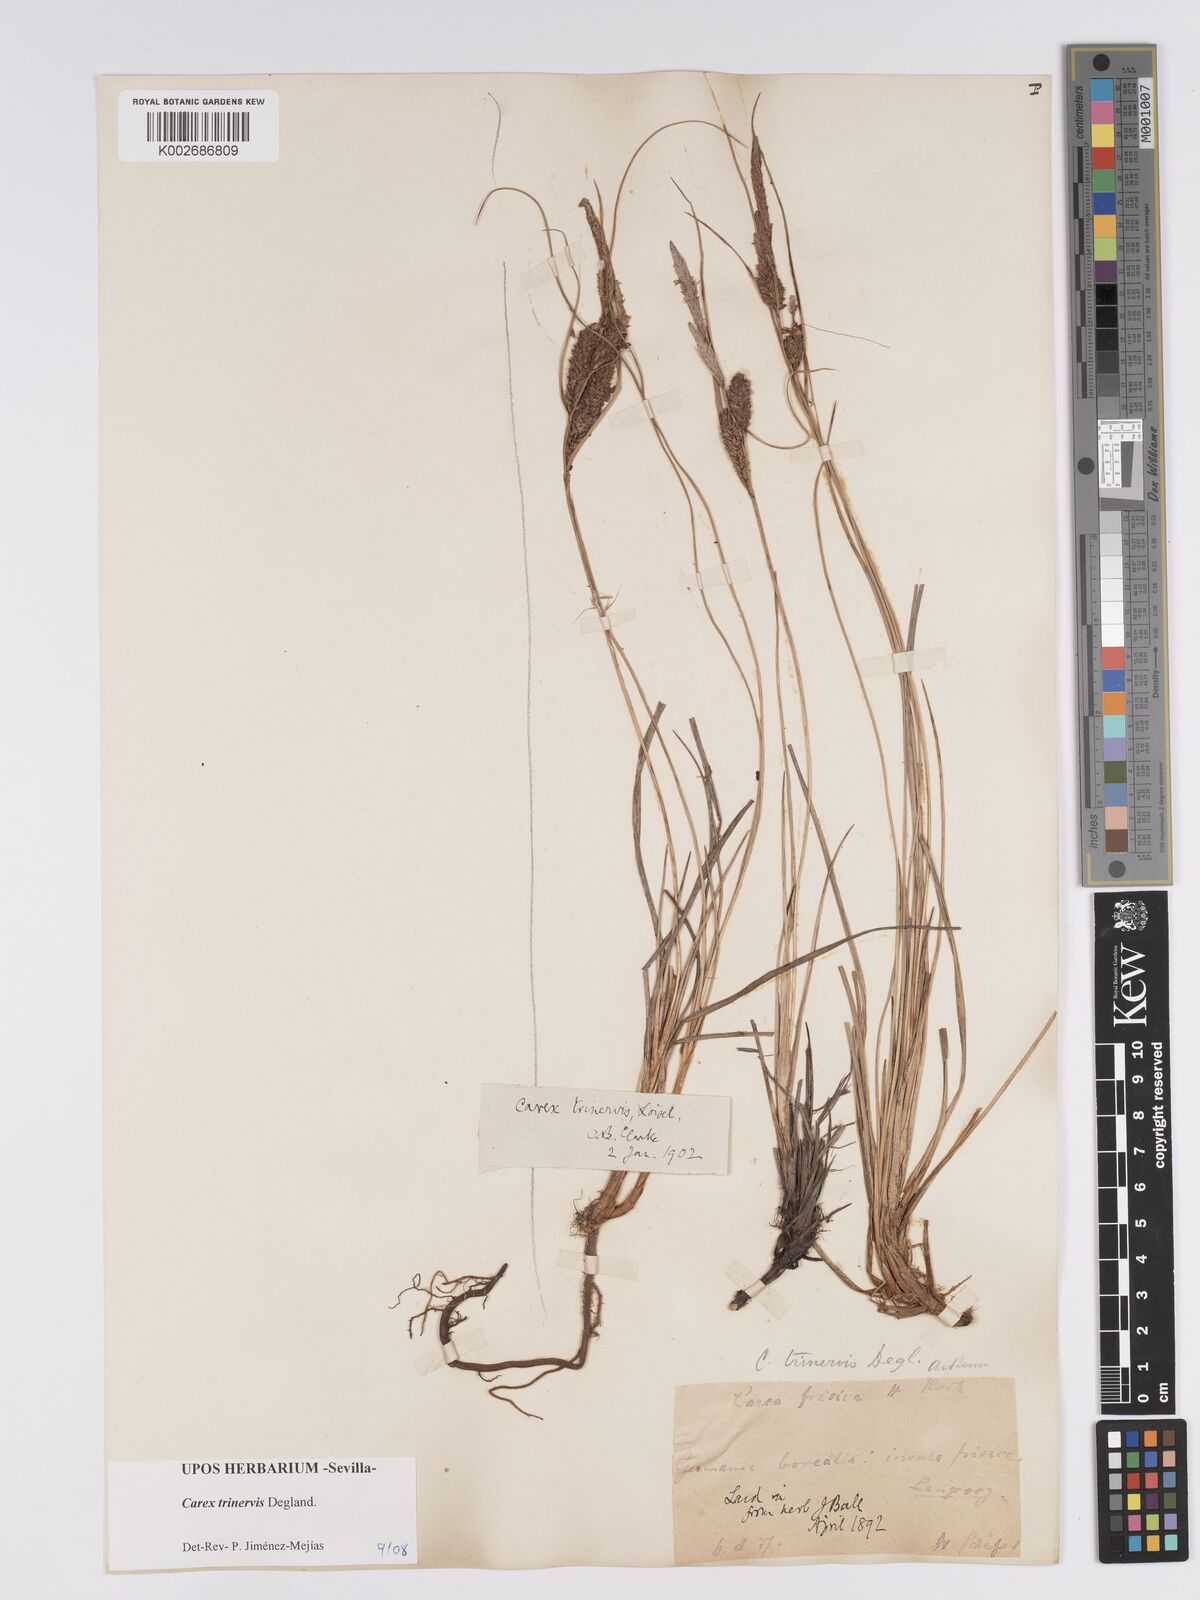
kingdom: Plantae
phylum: Tracheophyta
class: Liliopsida
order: Poales
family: Cyperaceae
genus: Carex
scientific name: Carex trinervis
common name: Three-nerved sedge
